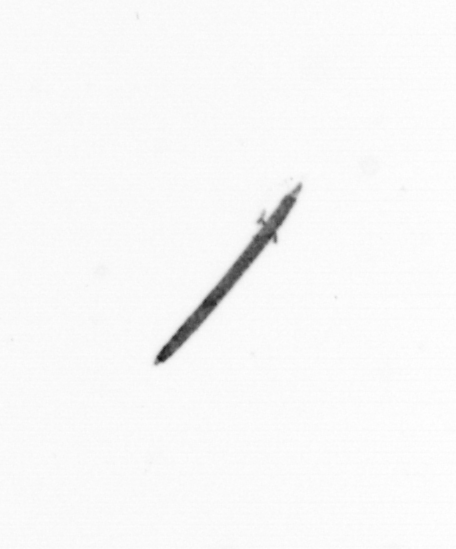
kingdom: Bacteria
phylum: Cyanobacteria
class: Cyanobacteriia
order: Cyanobacteriales
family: Microcoleaceae
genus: Trichodesmium
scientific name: Trichodesmium
